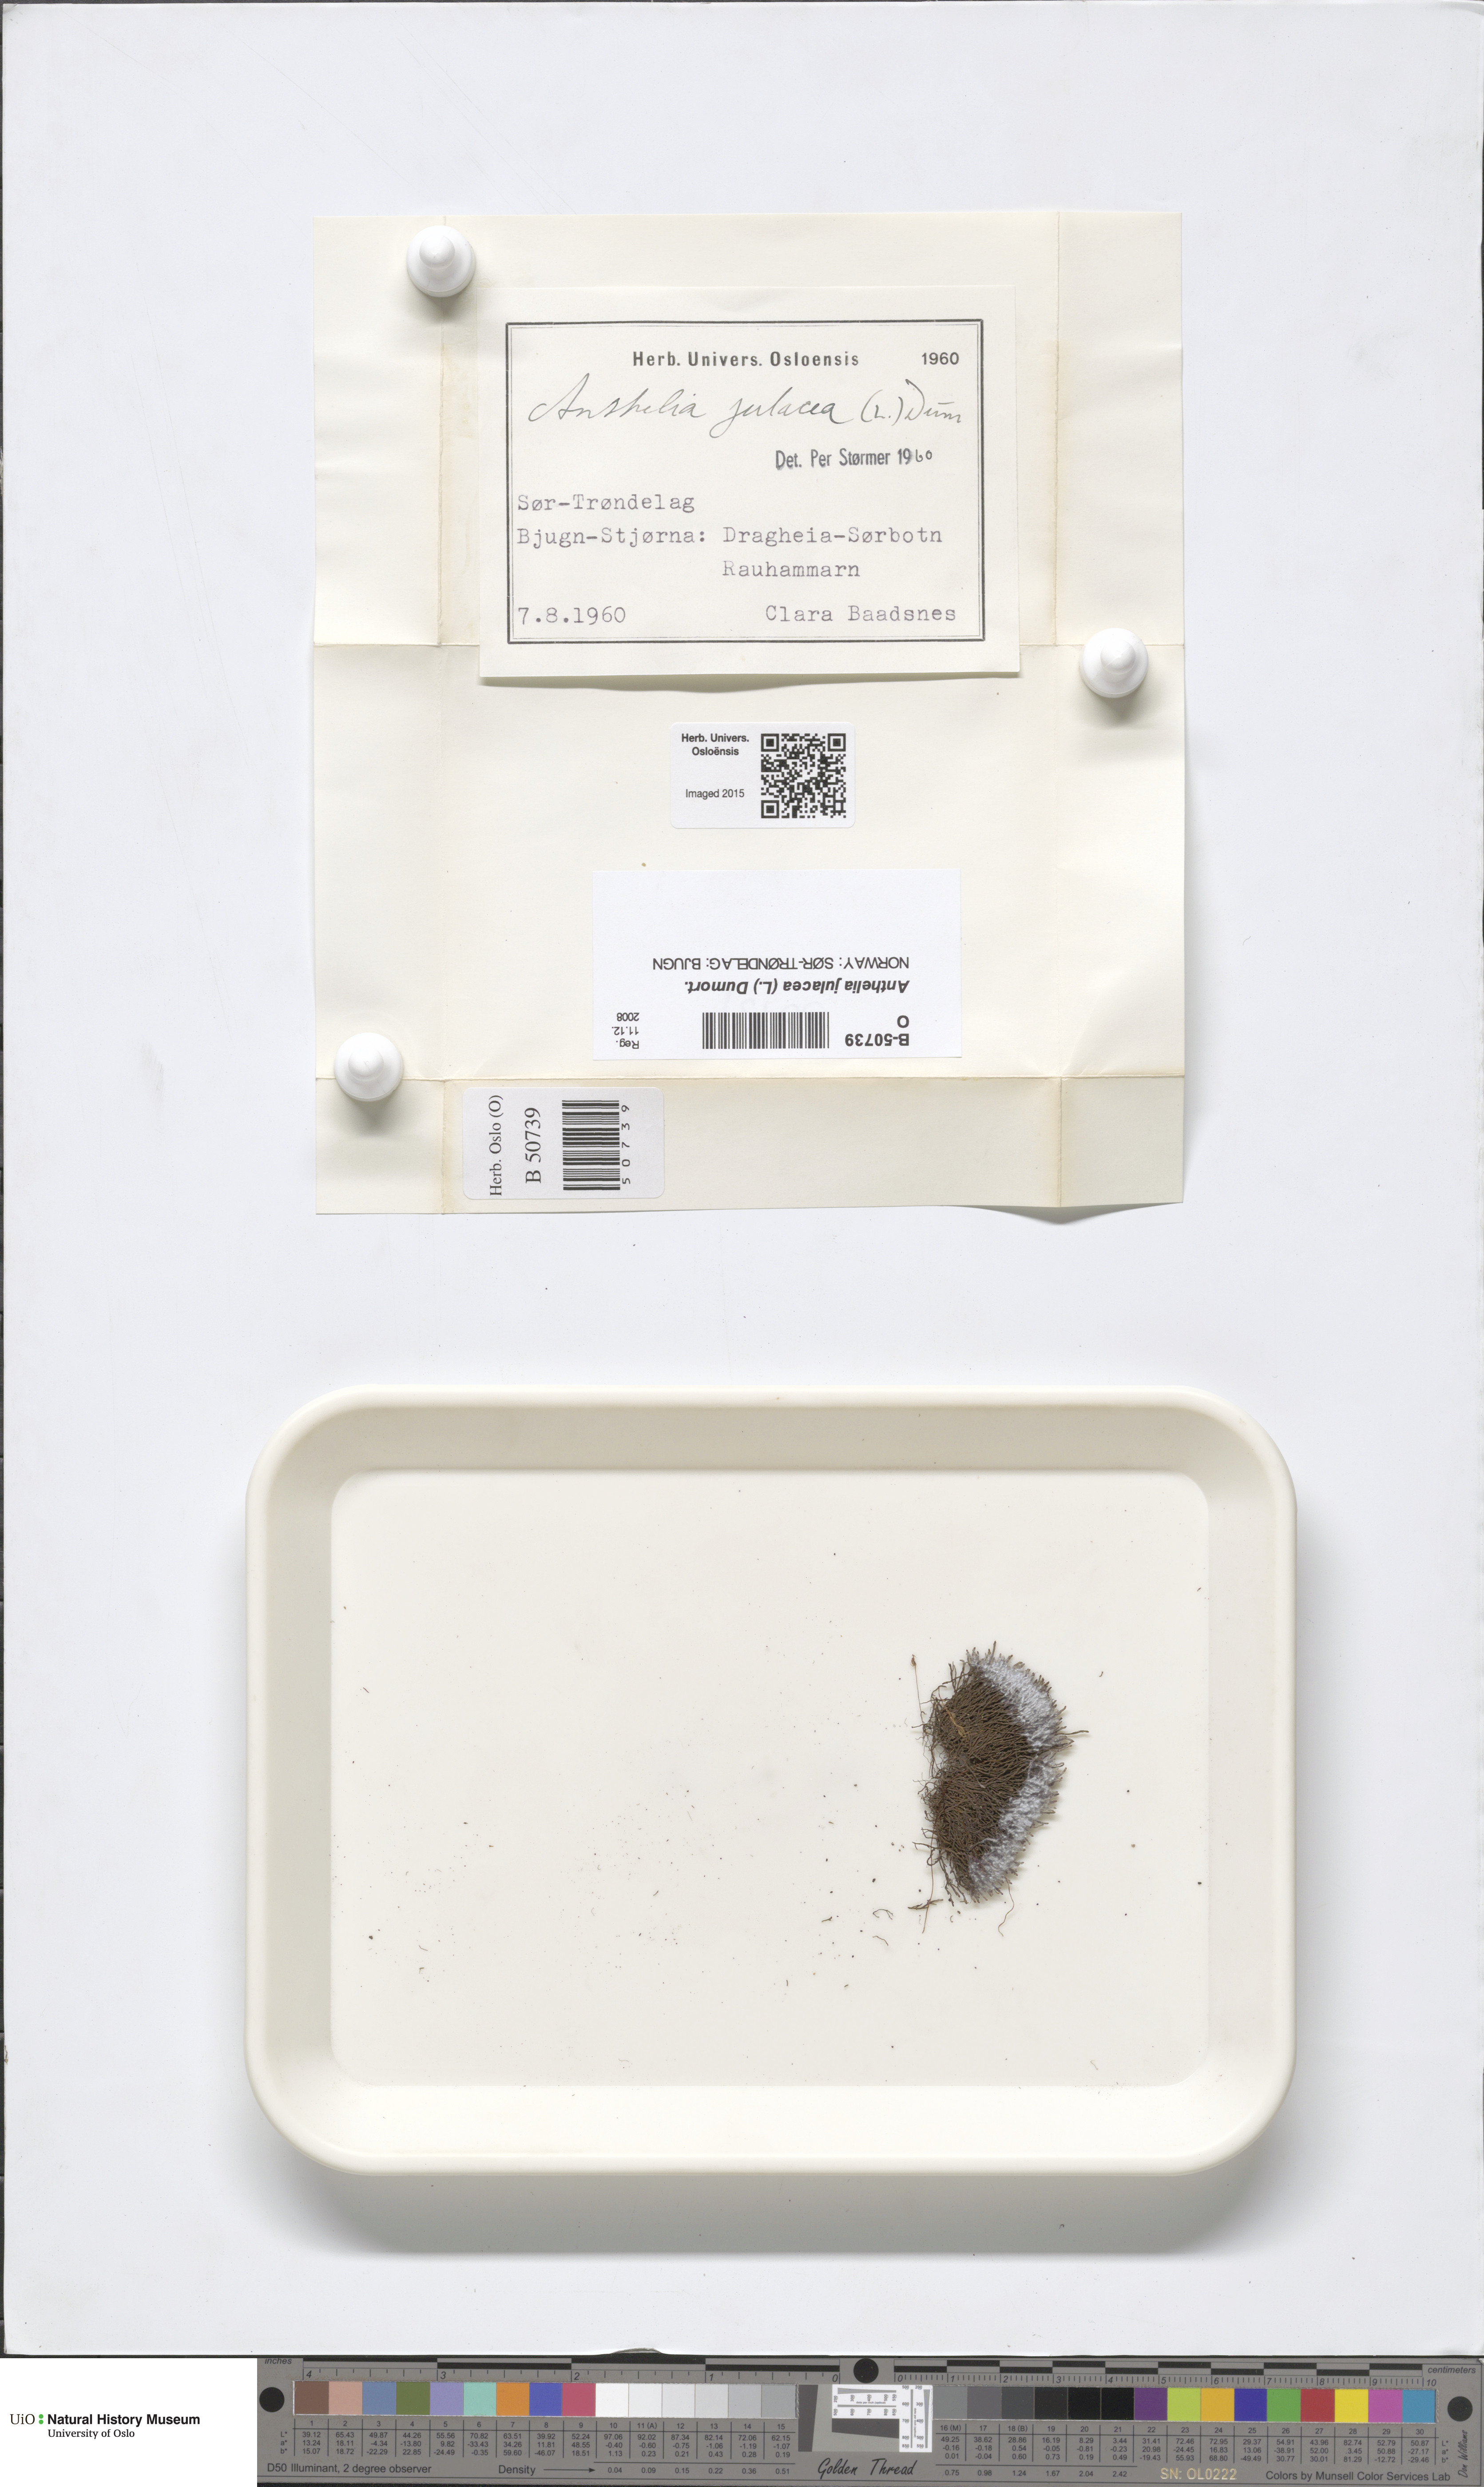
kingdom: Plantae
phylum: Marchantiophyta
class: Jungermanniopsida
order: Jungermanniales
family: Antheliaceae
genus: Anthelia
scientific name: Anthelia julacea
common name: Alpine silverwort
